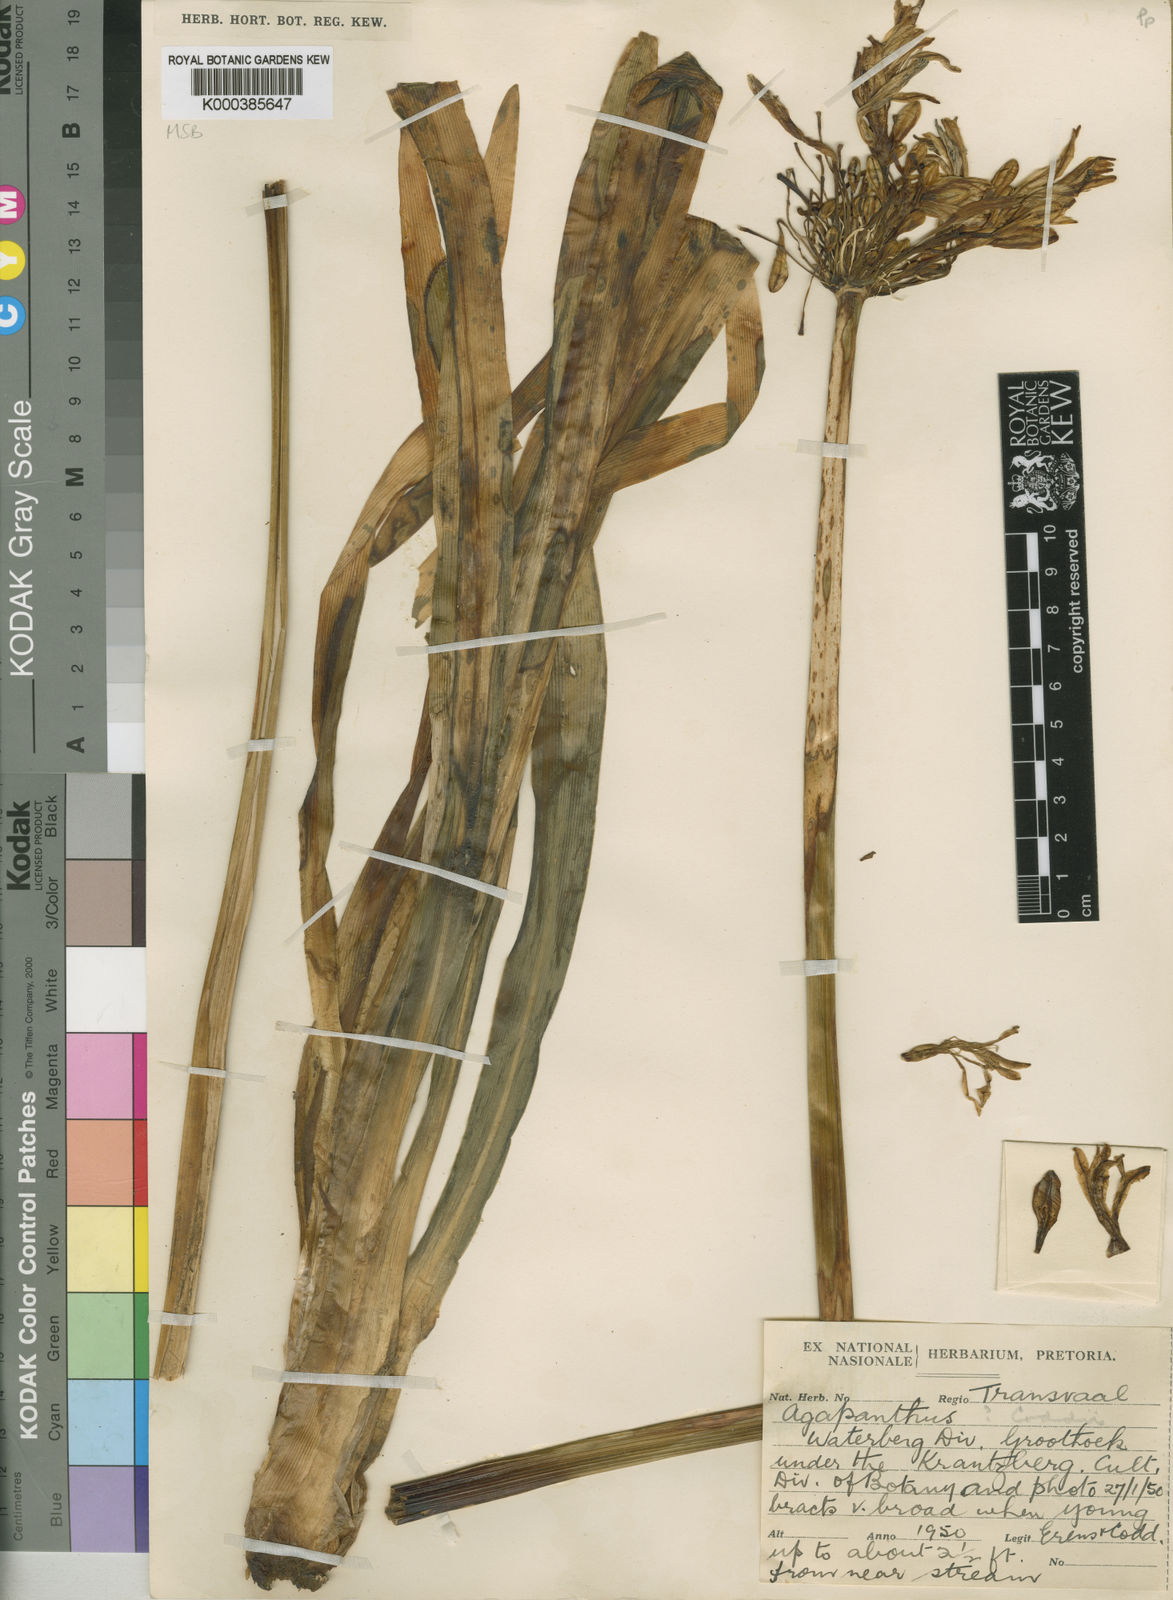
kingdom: Plantae
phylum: Tracheophyta
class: Liliopsida
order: Asparagales
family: Amaryllidaceae
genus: Agapanthus
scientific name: Agapanthus coddii
